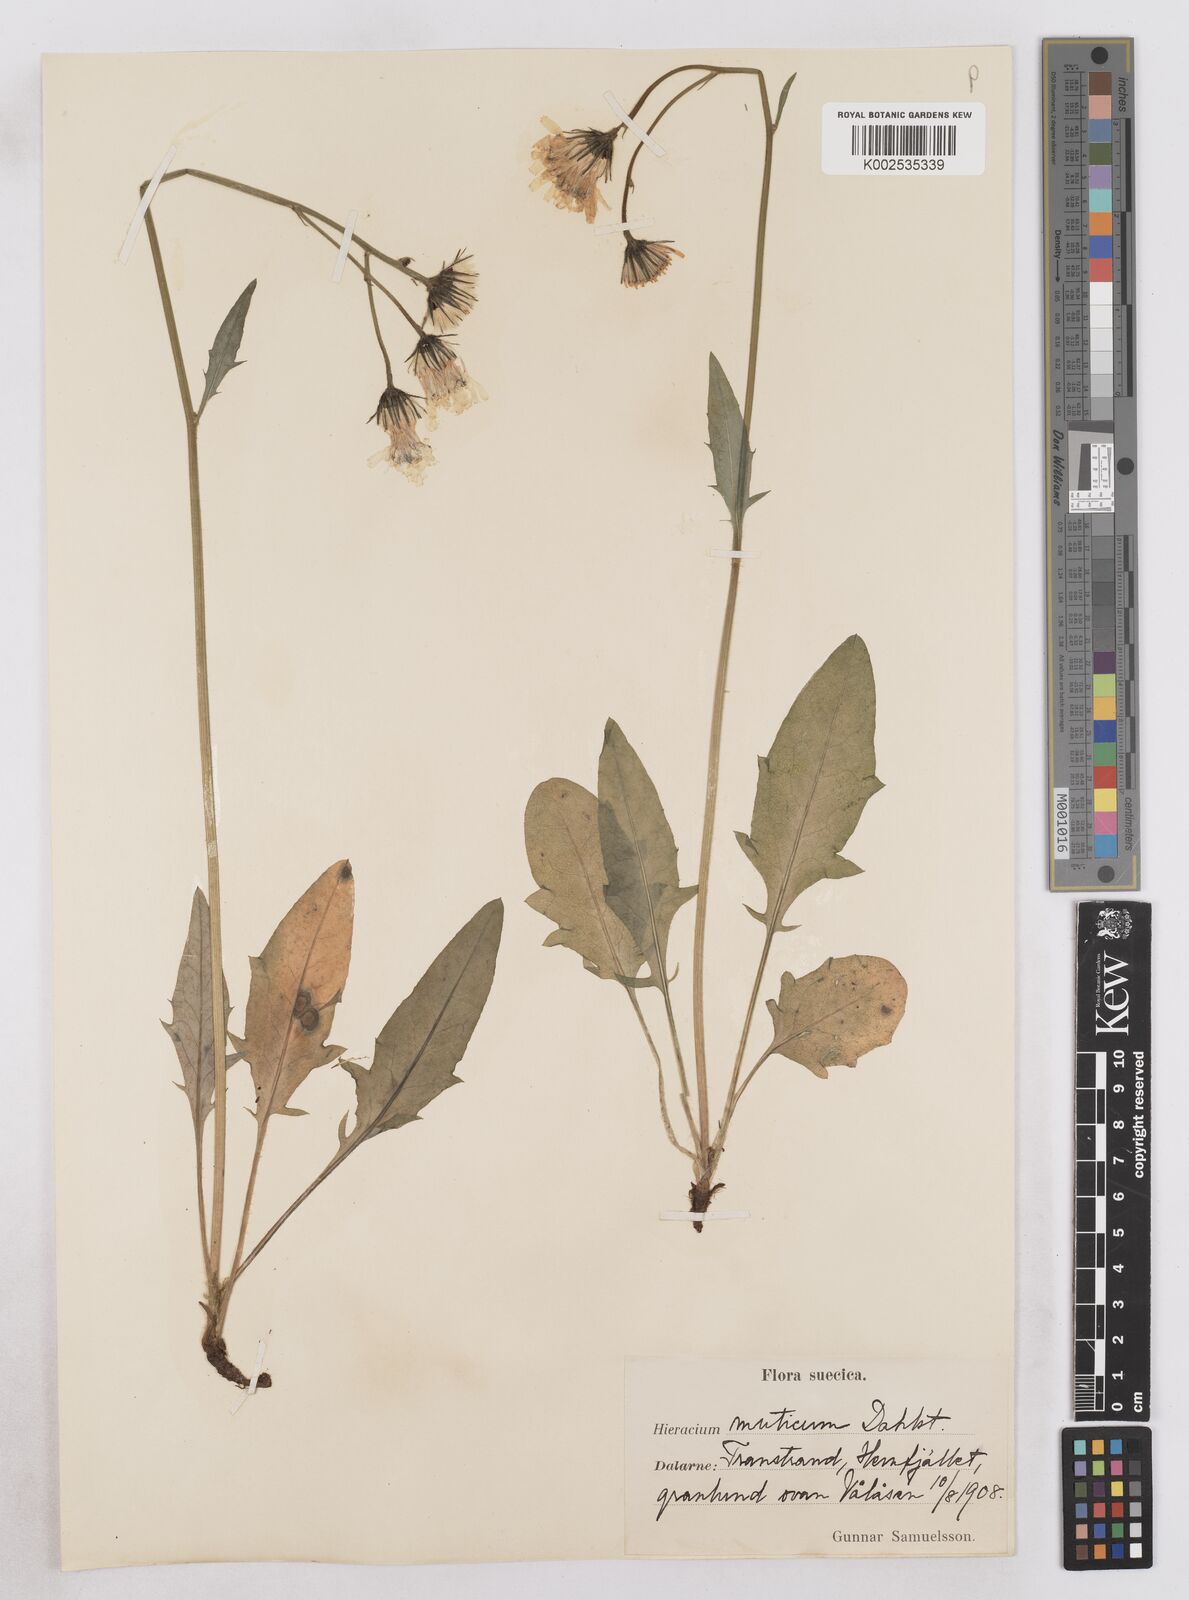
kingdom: Plantae
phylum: Tracheophyta
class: Magnoliopsida
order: Asterales
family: Asteraceae
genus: Hieracium
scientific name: Hieracium conspurcans
